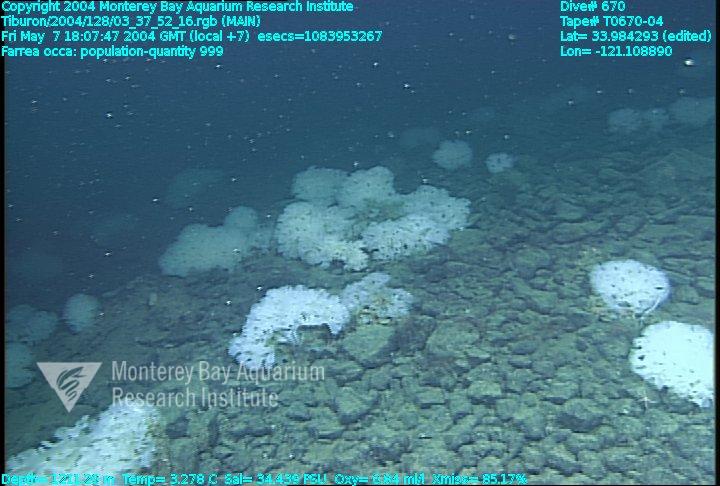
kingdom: Animalia
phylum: Porifera
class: Hexactinellida
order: Sceptrulophora
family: Farreidae
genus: Farrea
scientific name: Farrea occa
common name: Reversed glass sponge
